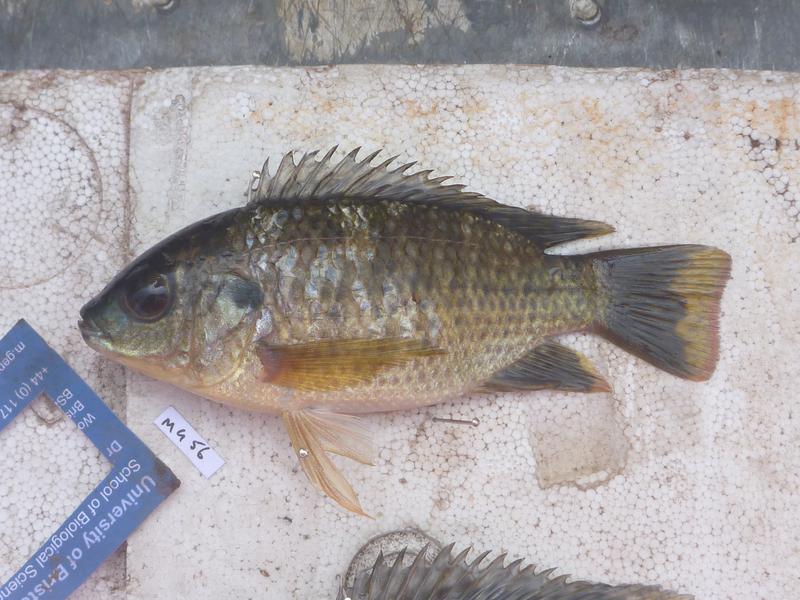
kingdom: Animalia
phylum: Chordata
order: Perciformes
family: Cichlidae
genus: Oreochromis
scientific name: Oreochromis leucostictus
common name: Blue spotted tilapia
